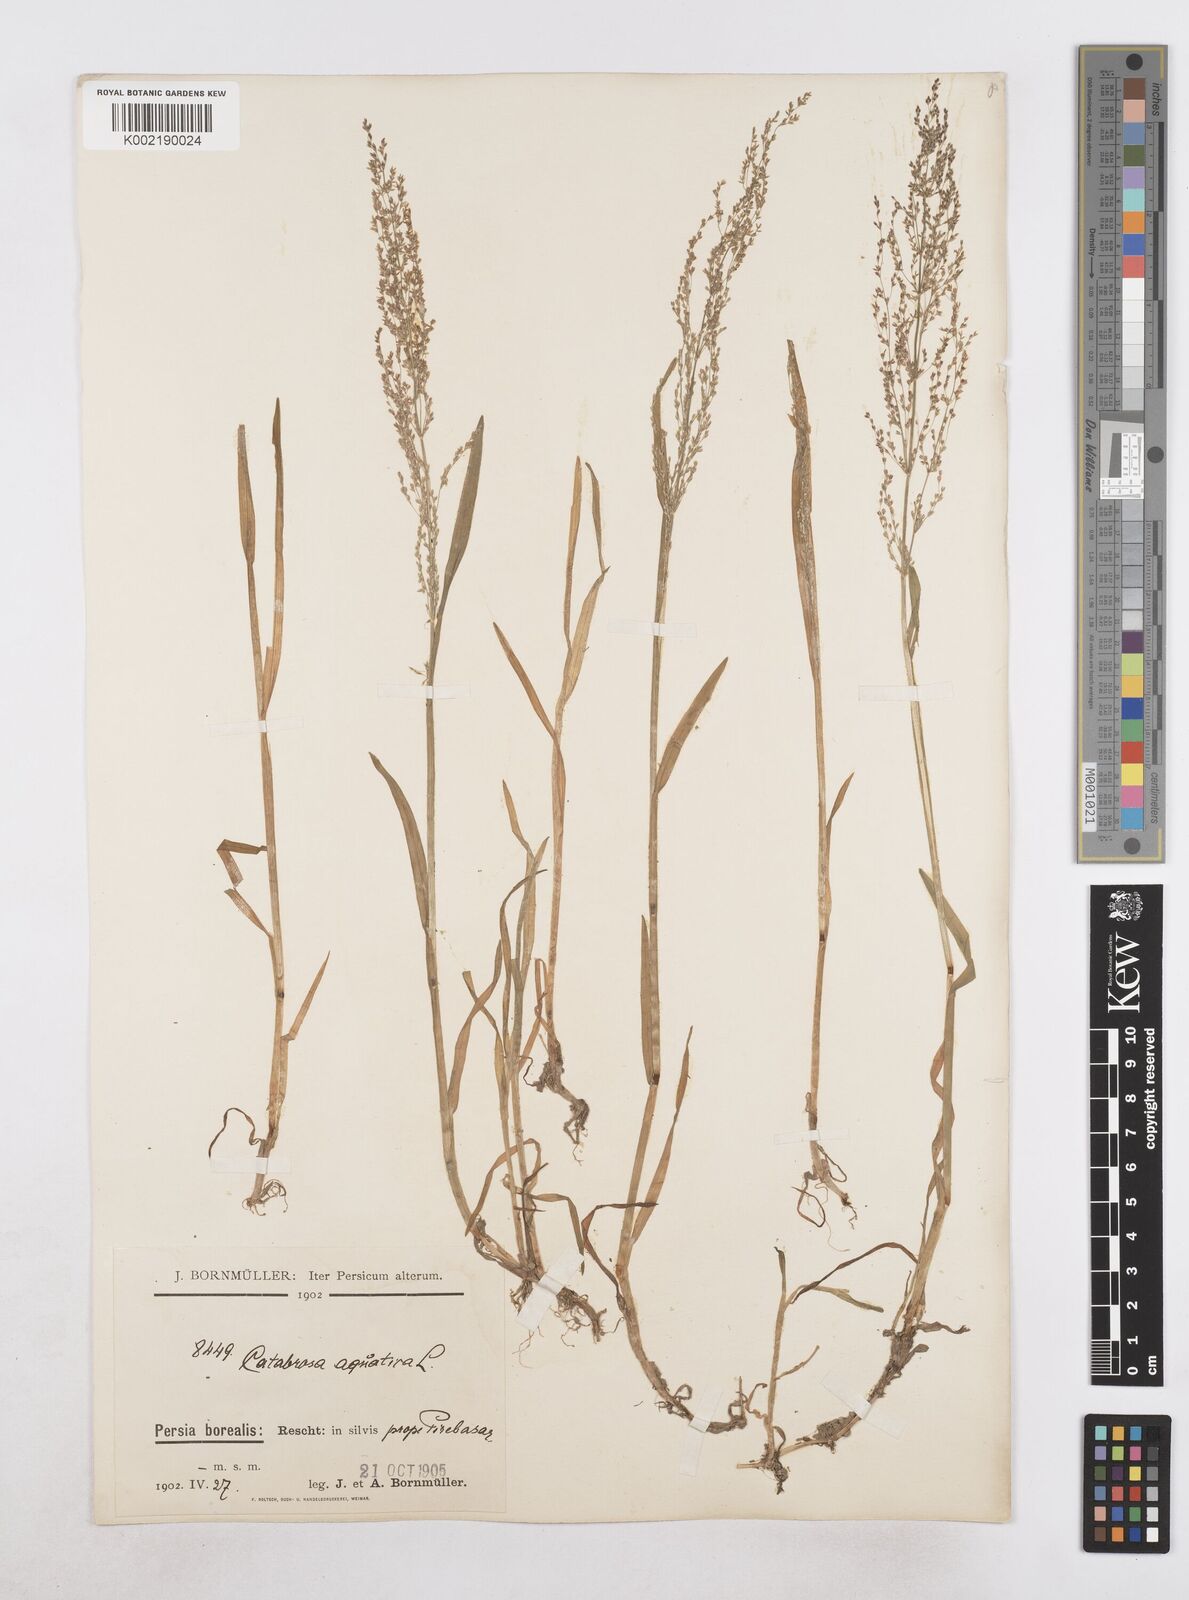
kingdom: Plantae
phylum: Tracheophyta
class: Liliopsida
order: Poales
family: Poaceae
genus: Catabrosa
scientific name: Catabrosa aquatica
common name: Whorl-grass
